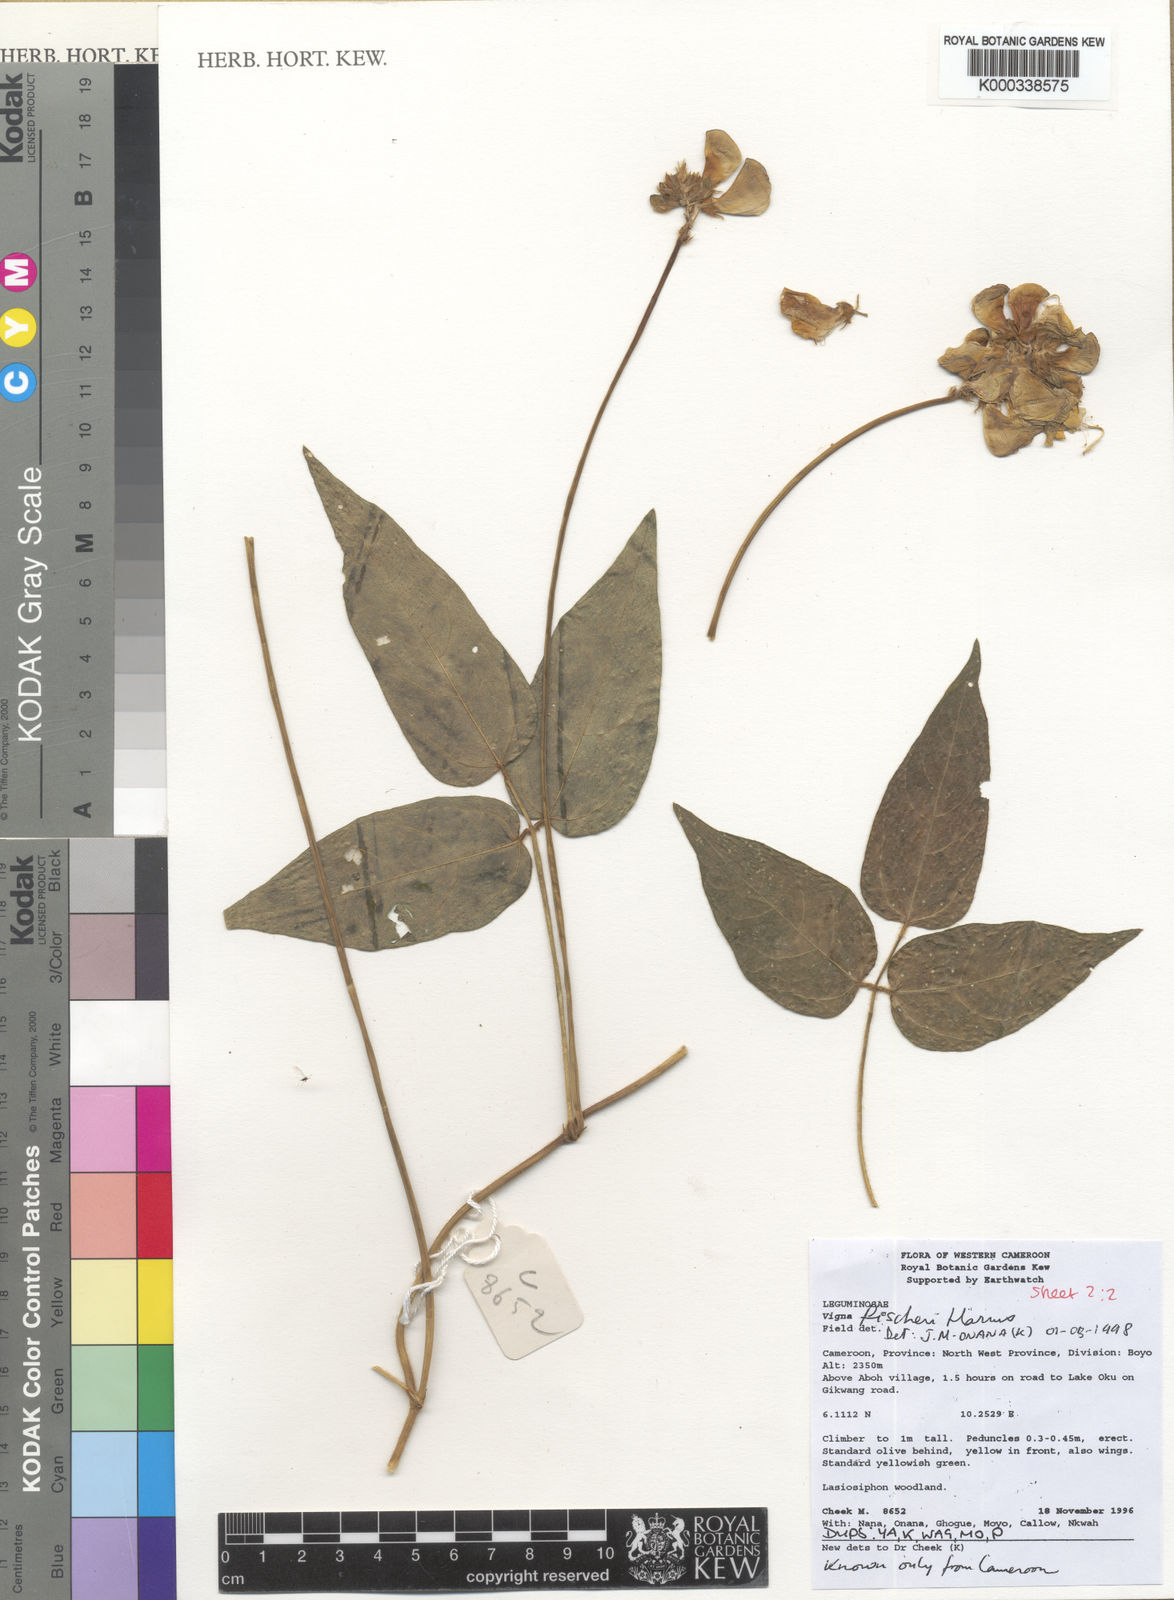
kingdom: Plantae
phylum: Tracheophyta
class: Magnoliopsida
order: Fabales
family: Fabaceae
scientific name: Fabaceae
